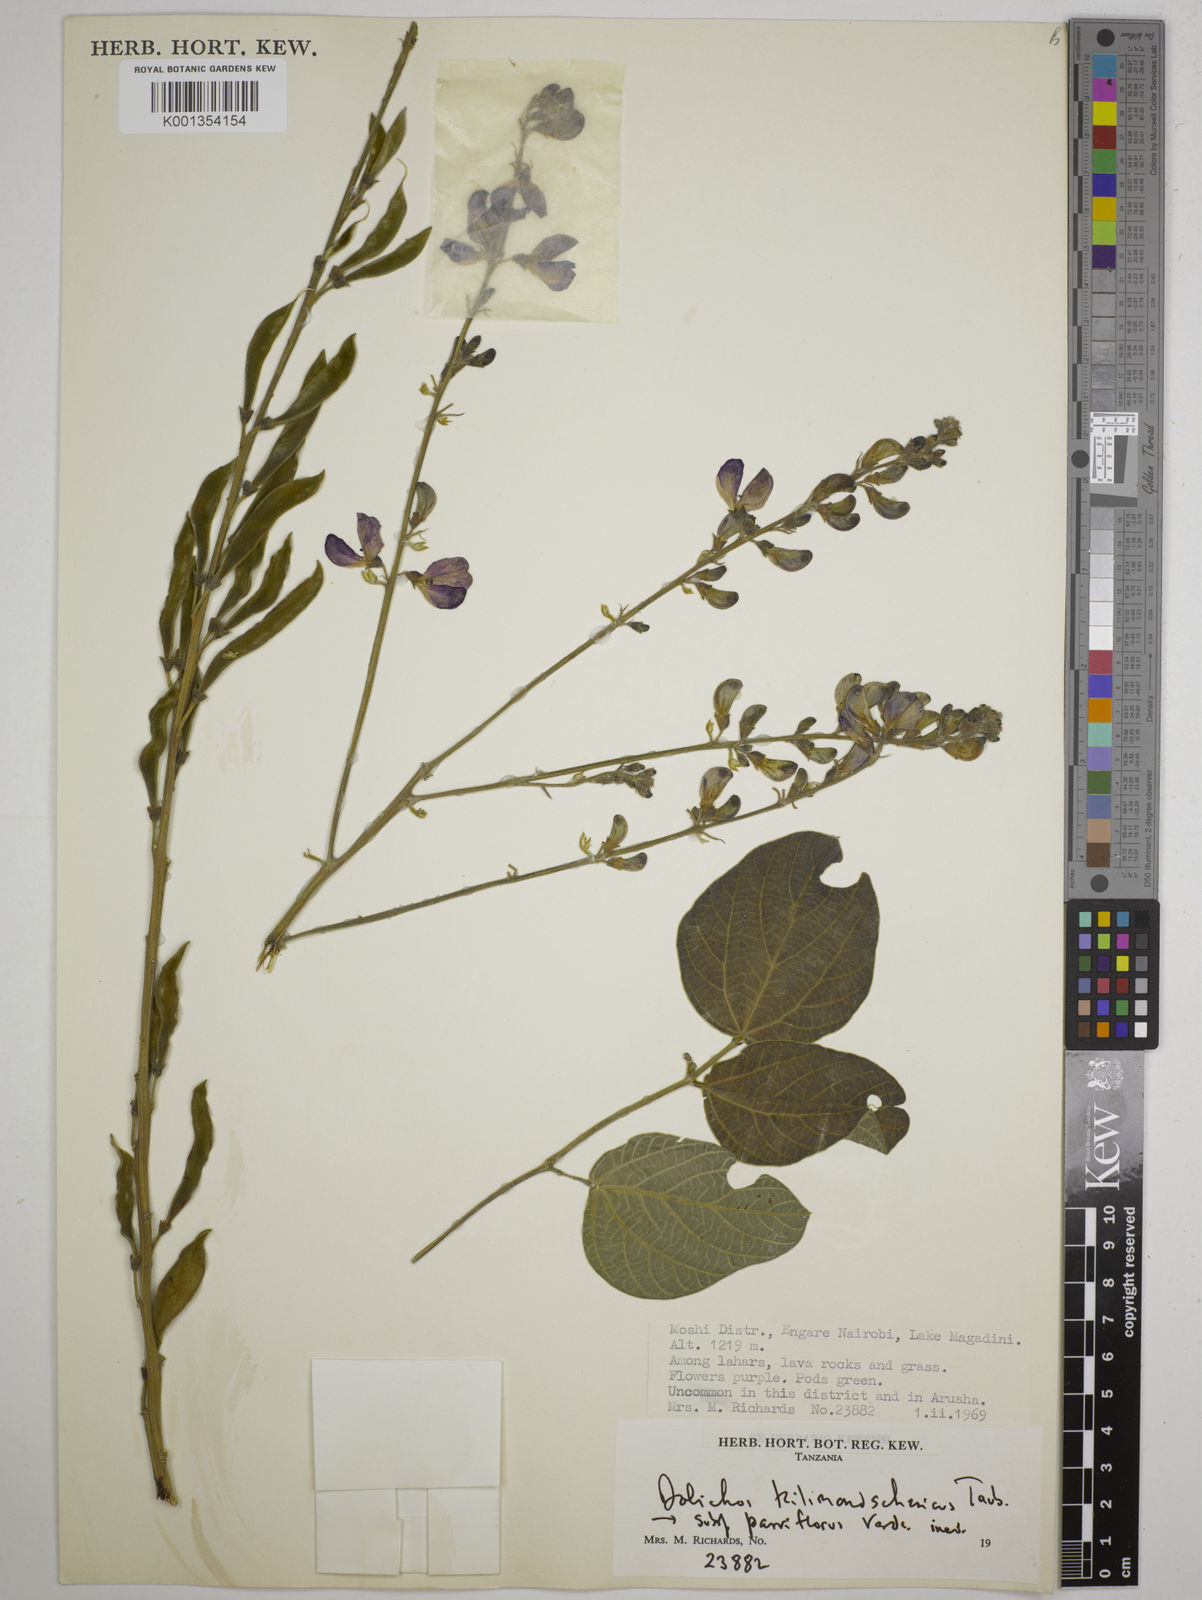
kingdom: Plantae
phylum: Tracheophyta
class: Magnoliopsida
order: Fabales
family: Fabaceae
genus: Dolichos
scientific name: Dolichos
